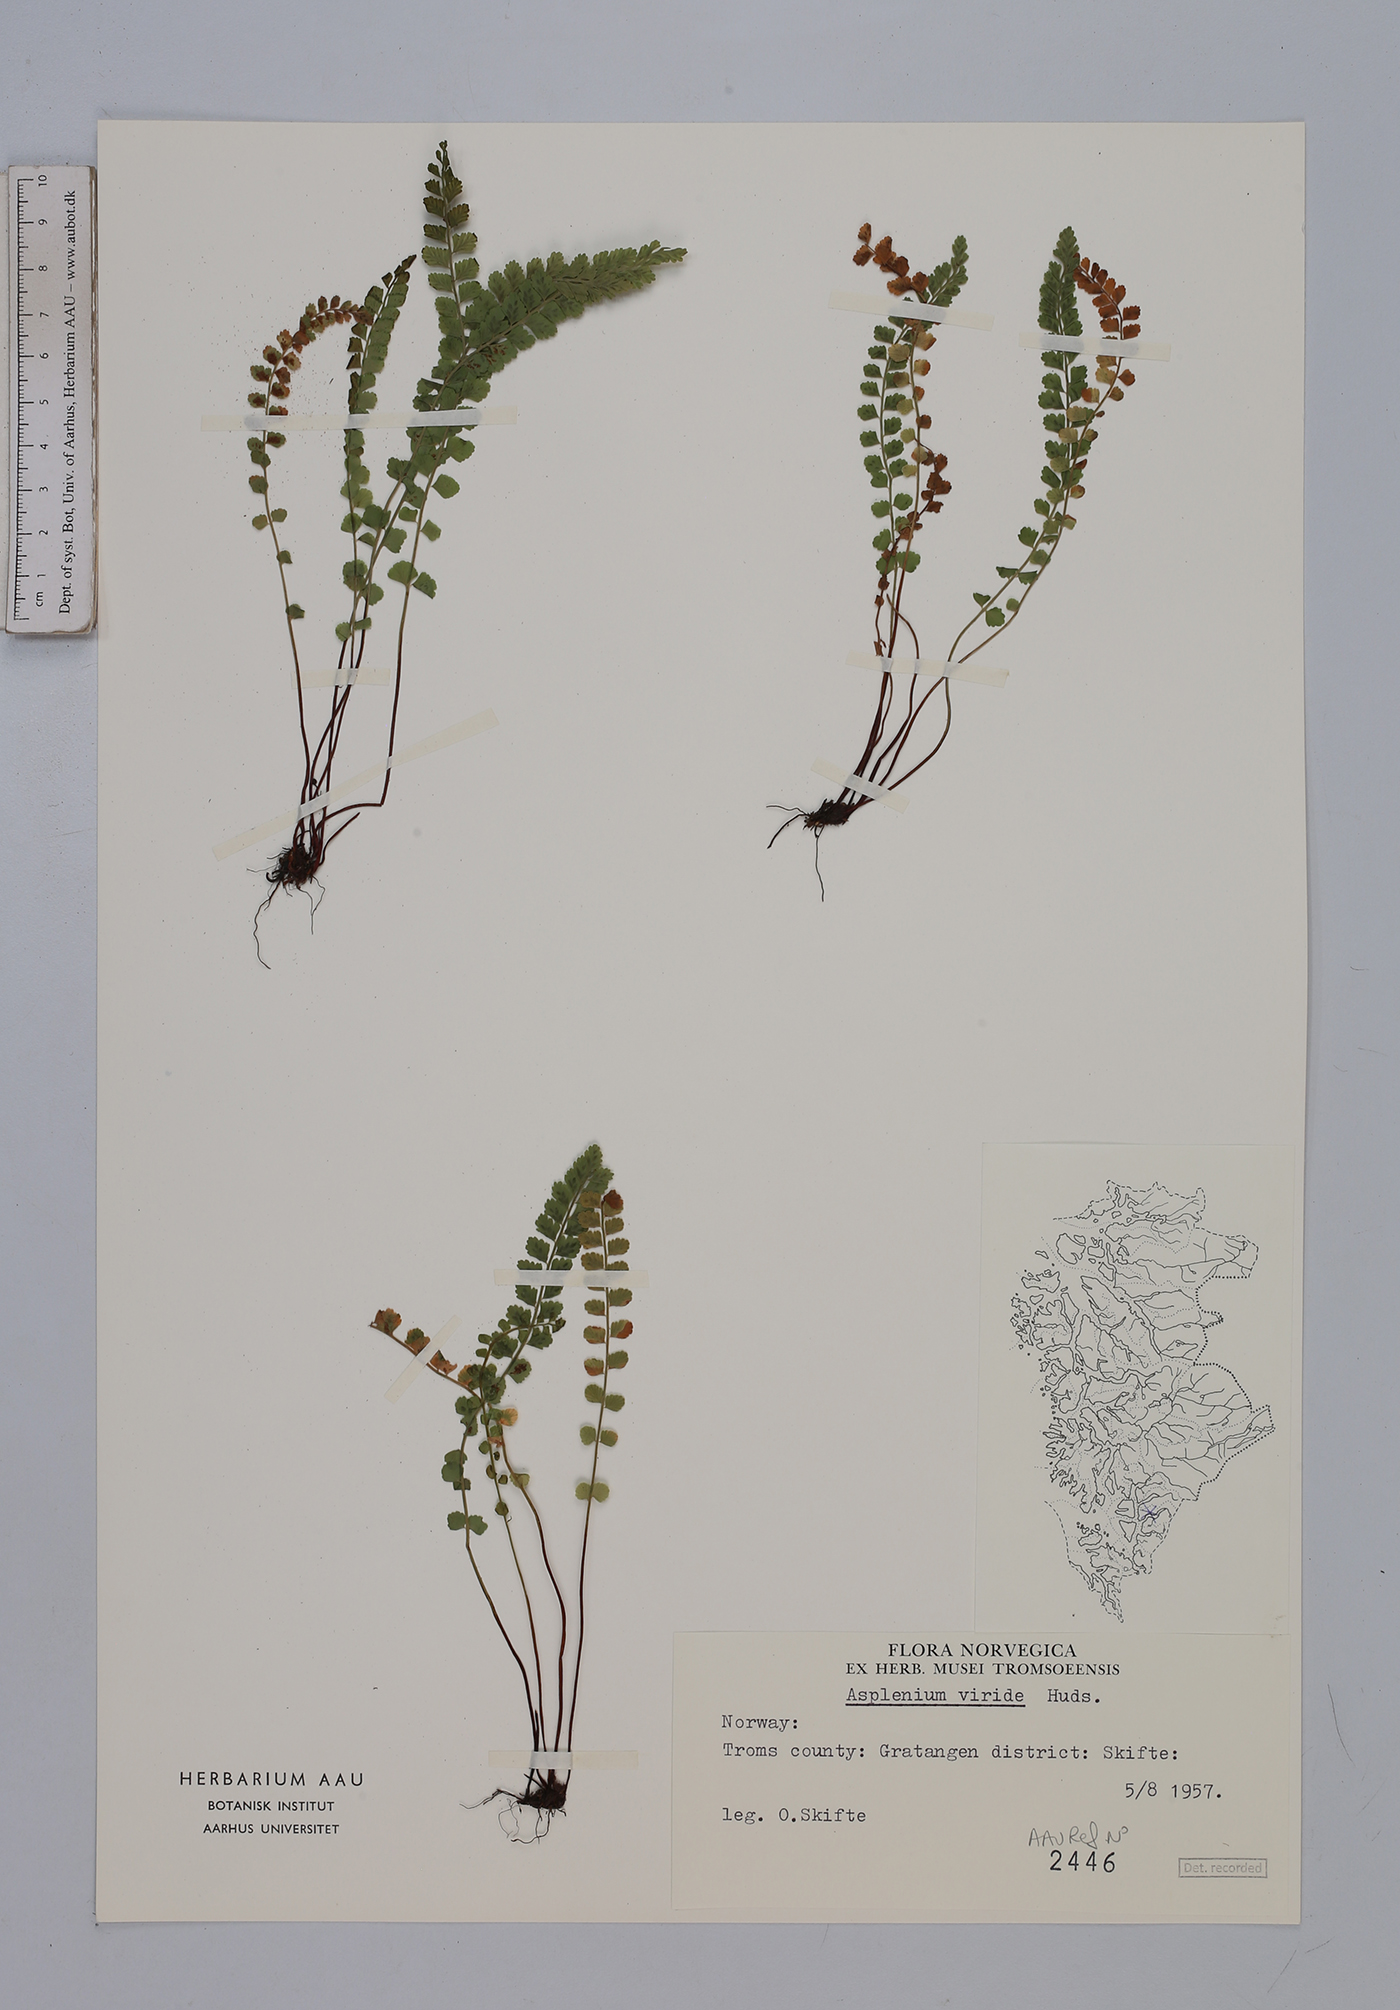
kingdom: Plantae
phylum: Tracheophyta
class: Polypodiopsida
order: Polypodiales
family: Aspleniaceae
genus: Asplenium
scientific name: Asplenium viride
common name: Green spleenwort
